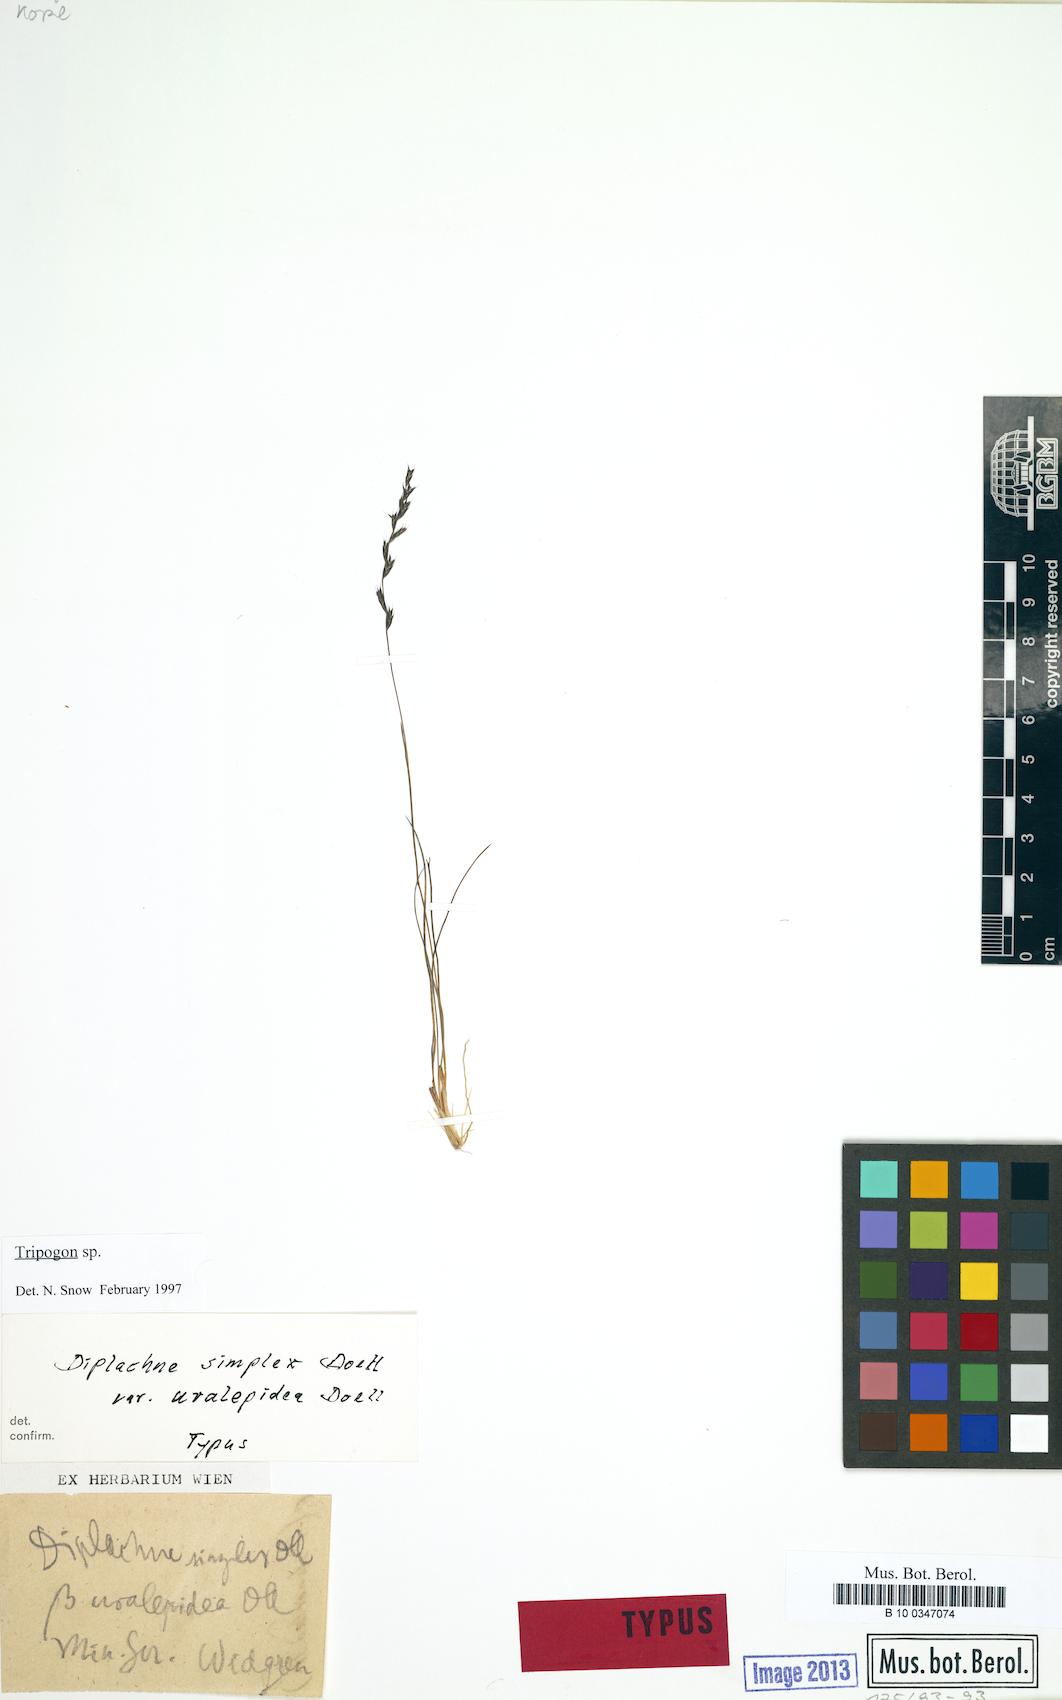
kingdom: Plantae
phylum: Tracheophyta
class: Liliopsida
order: Poales
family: Poaceae
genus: Tripogonella
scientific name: Tripogonella spicata
